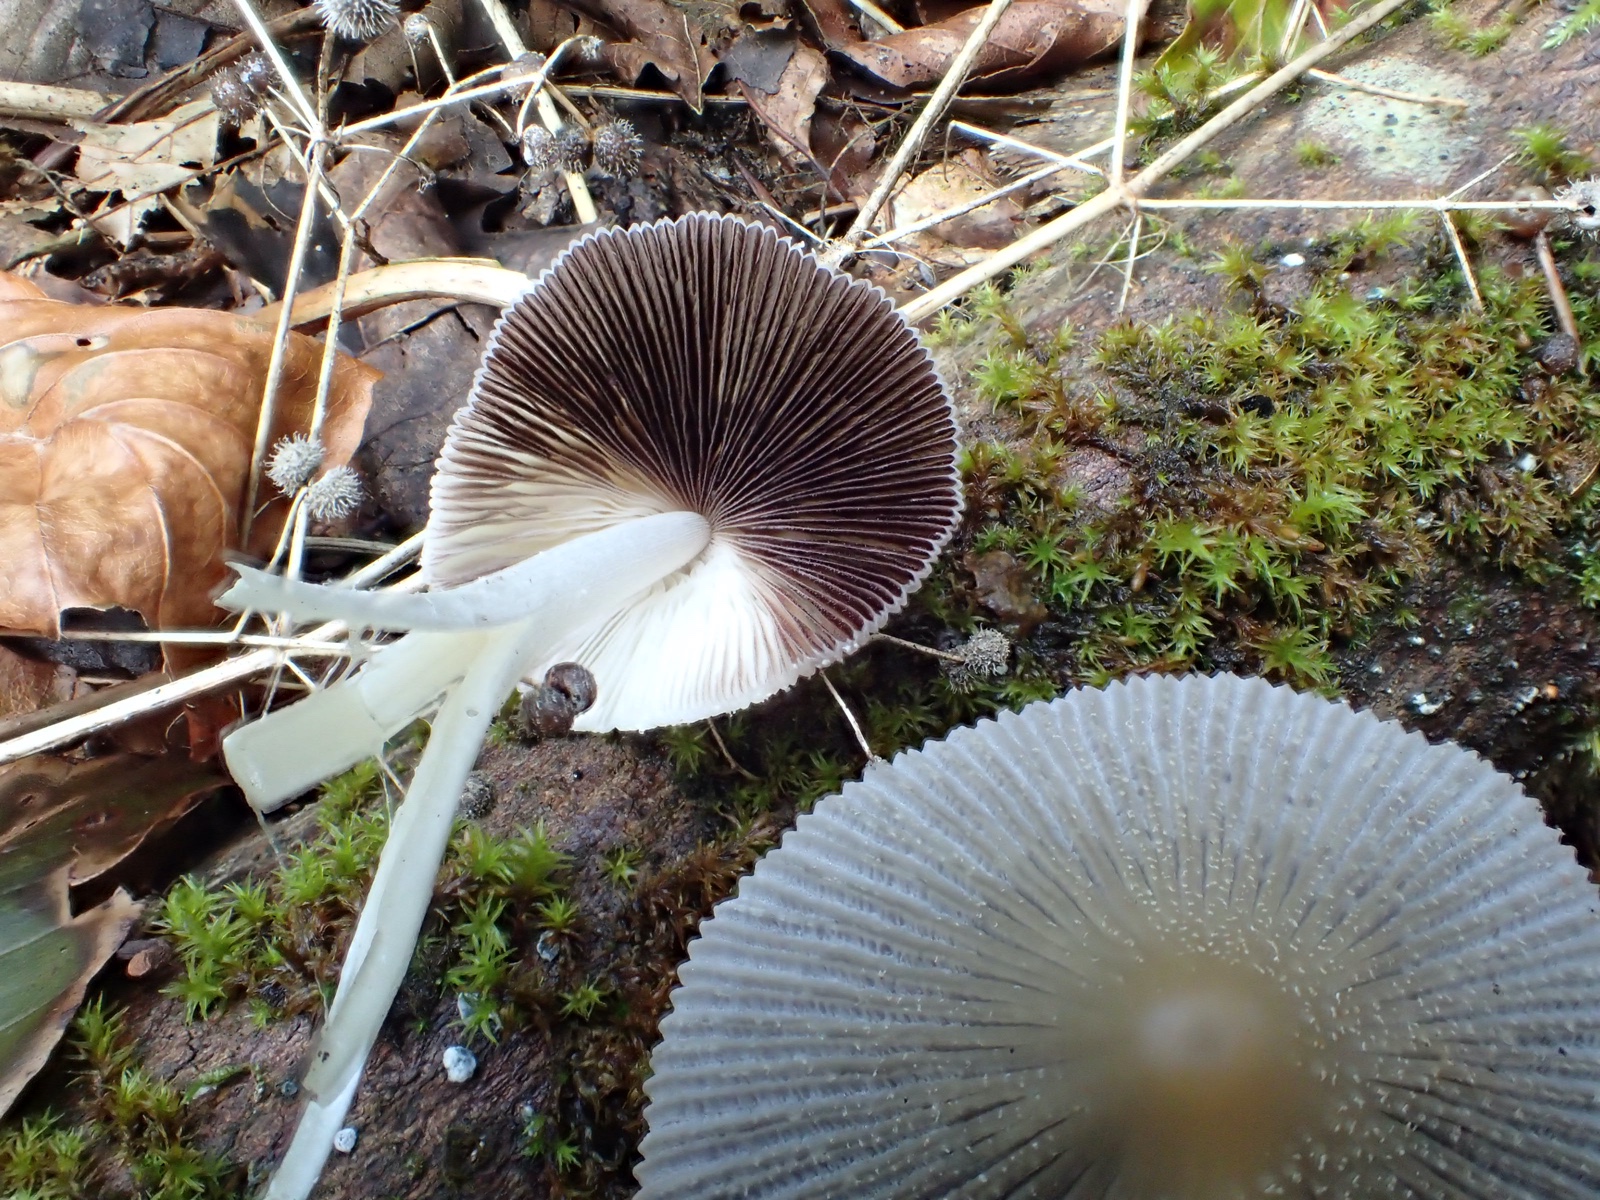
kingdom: Fungi
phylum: Basidiomycota
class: Agaricomycetes
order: Agaricales
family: Psathyrellaceae
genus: Coprinellus
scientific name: Coprinellus
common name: blækhat
